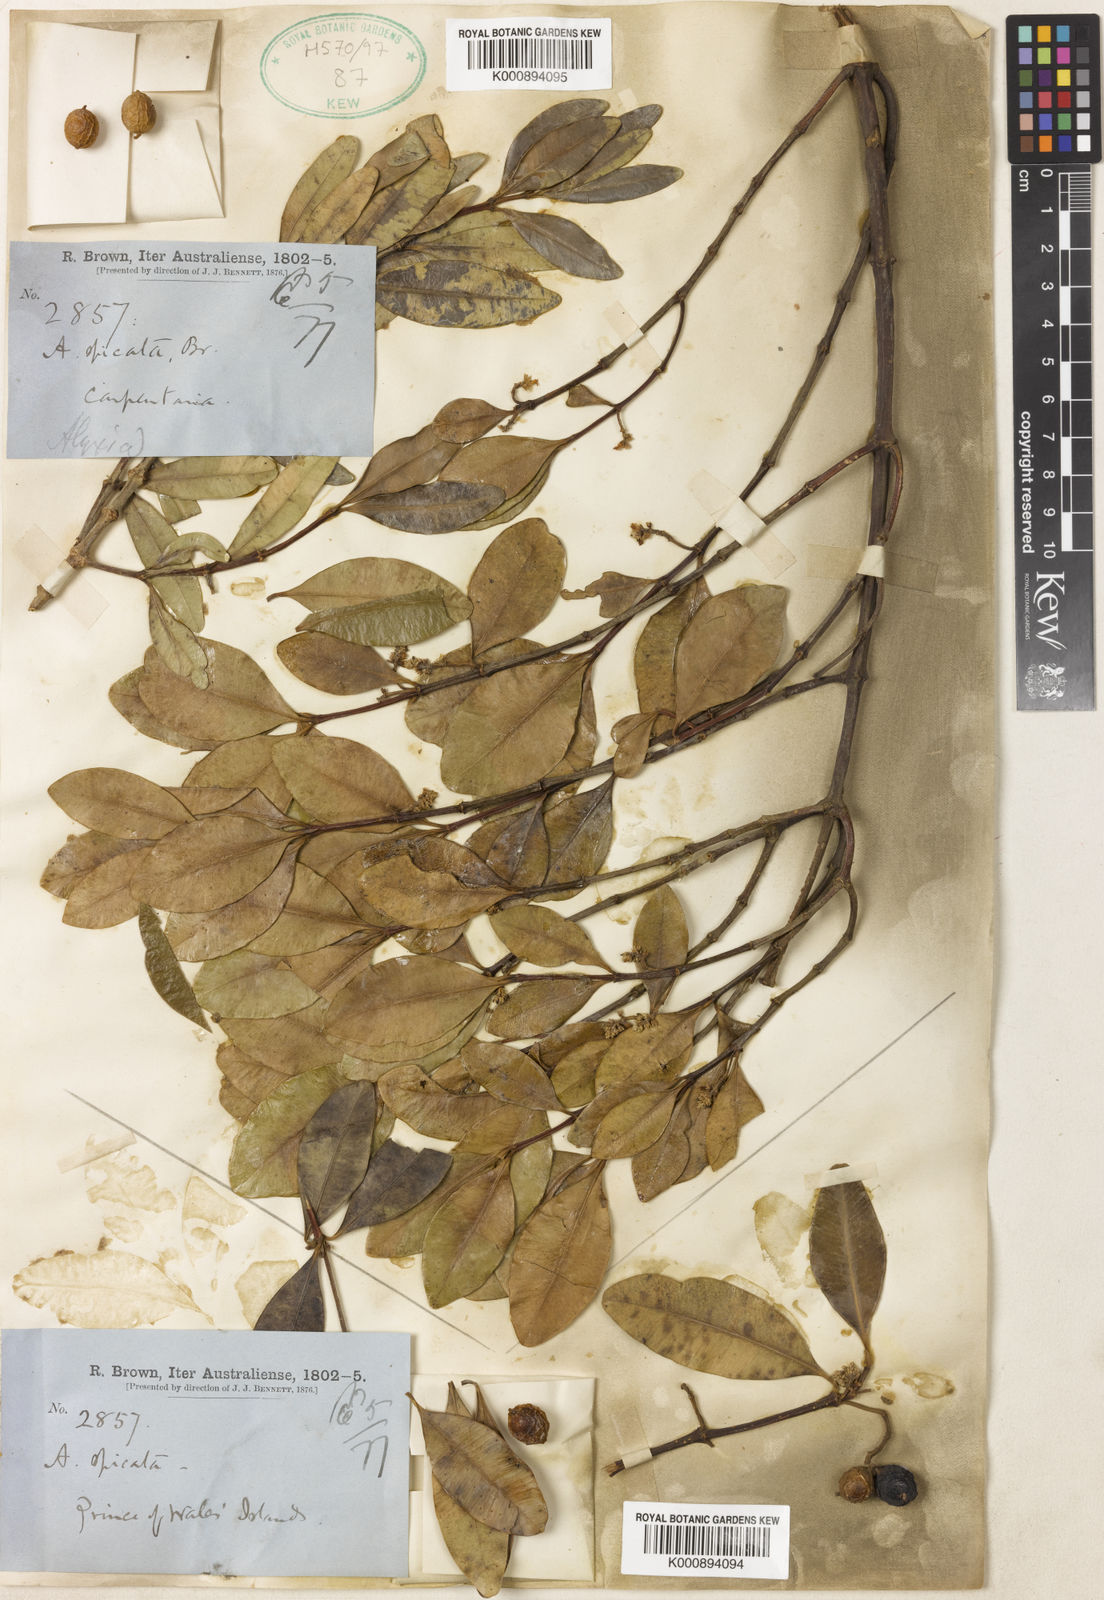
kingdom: Plantae
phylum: Tracheophyta
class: Magnoliopsida
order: Gentianales
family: Apocynaceae
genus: Alyxia
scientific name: Alyxia spicata
